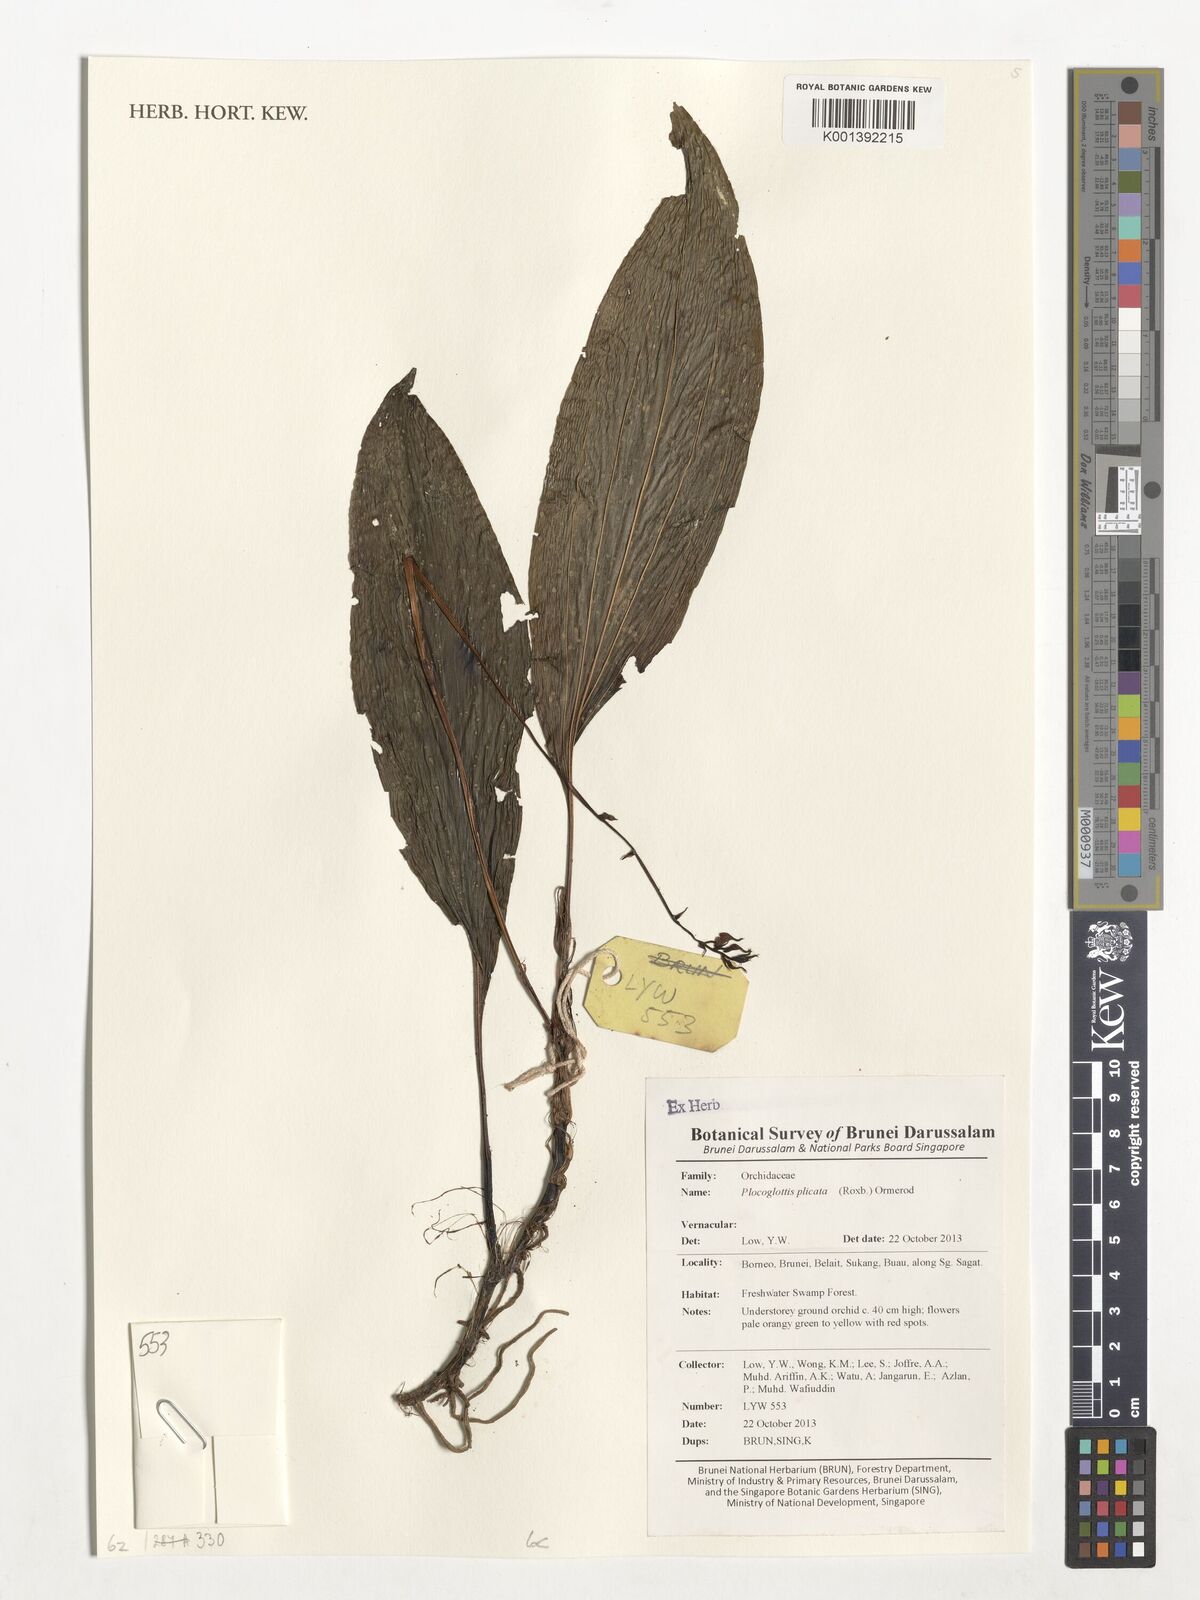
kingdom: Plantae
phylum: Tracheophyta
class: Liliopsida
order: Asparagales
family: Orchidaceae
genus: Plocoglottis
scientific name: Plocoglottis plicata
